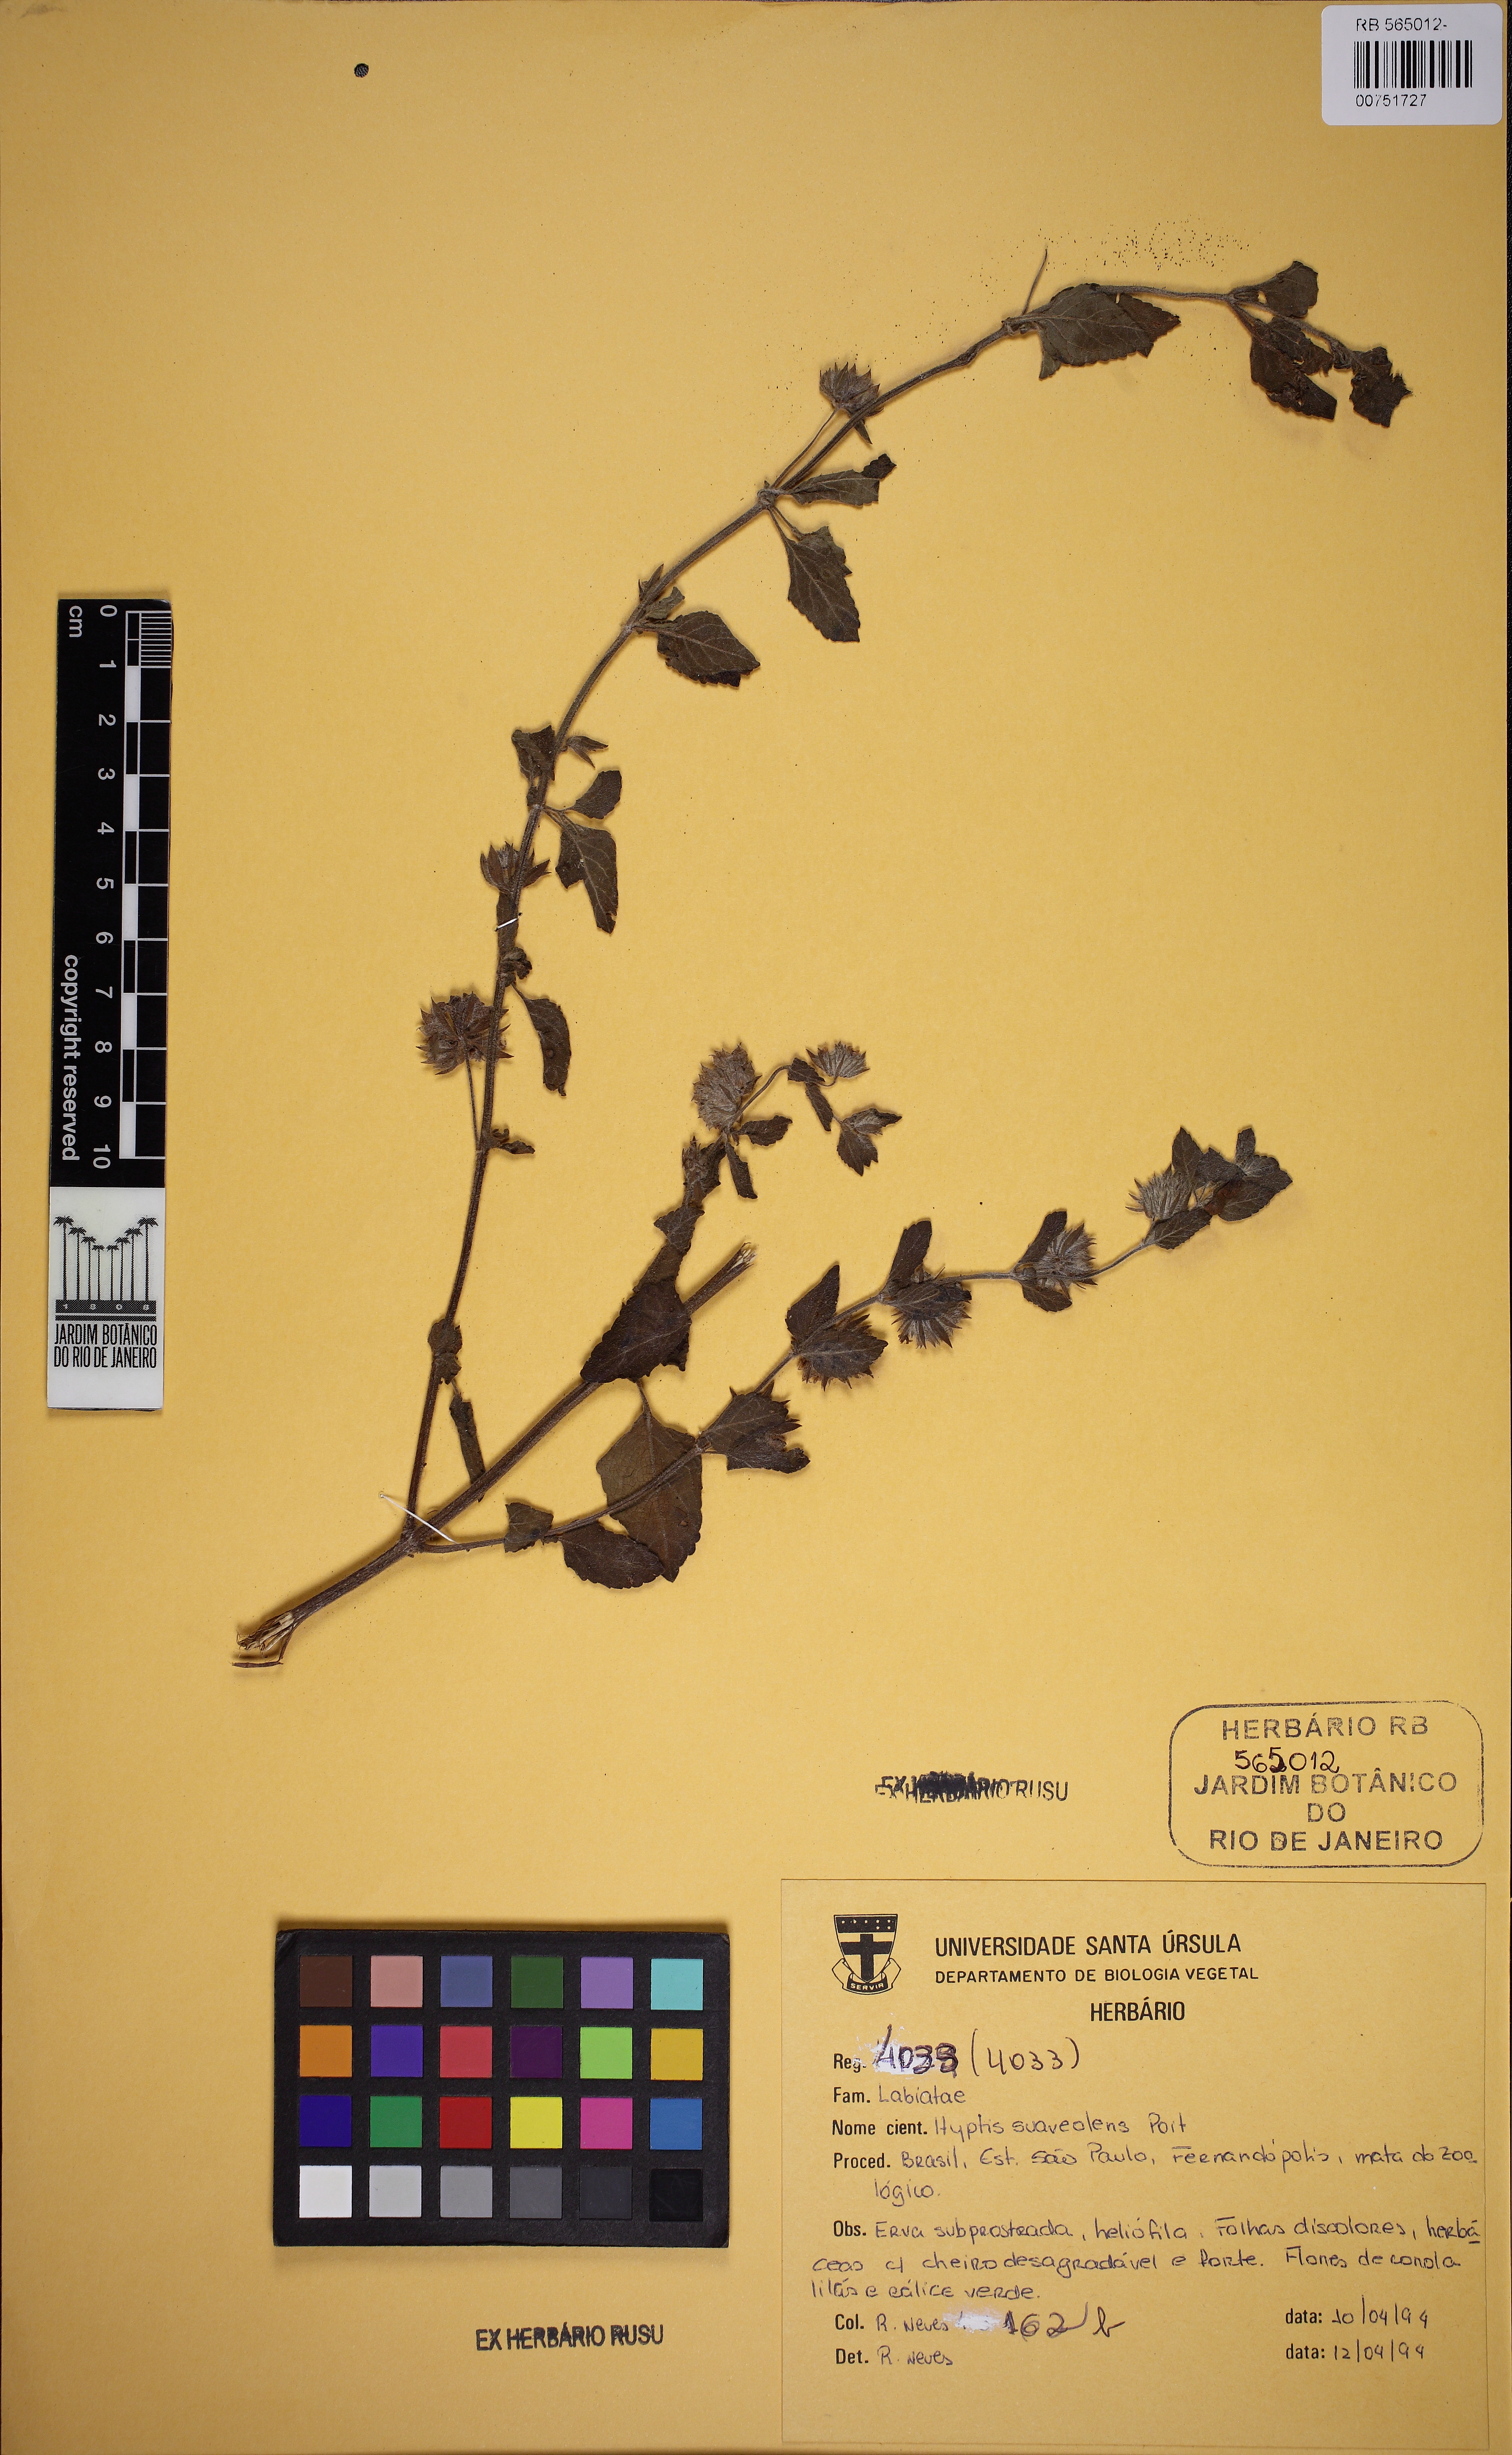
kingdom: Plantae
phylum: Tracheophyta
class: Magnoliopsida
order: Lamiales
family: Lamiaceae
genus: Mesosphaerum
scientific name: Mesosphaerum suaveolens
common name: Pignut
